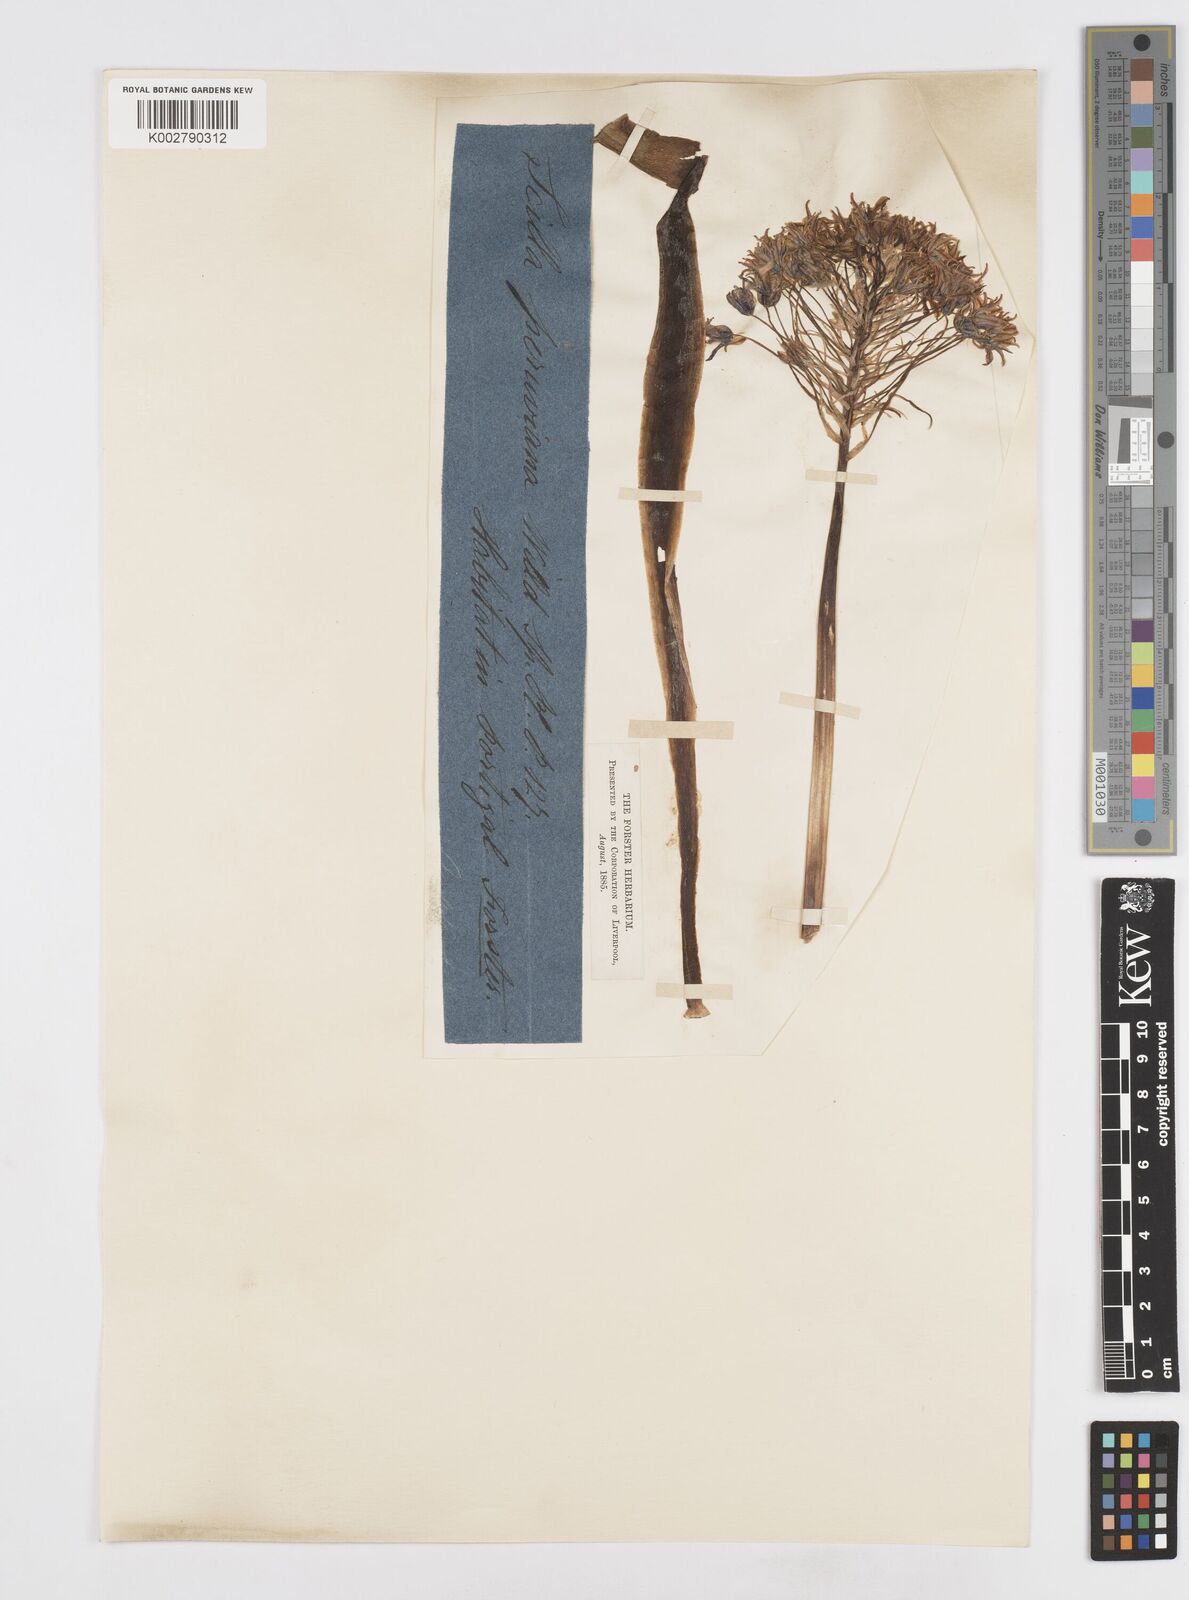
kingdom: Plantae
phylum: Tracheophyta
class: Liliopsida
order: Asparagales
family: Asparagaceae
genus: Scilla
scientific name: Scilla peruviana
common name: Portuguese squill
